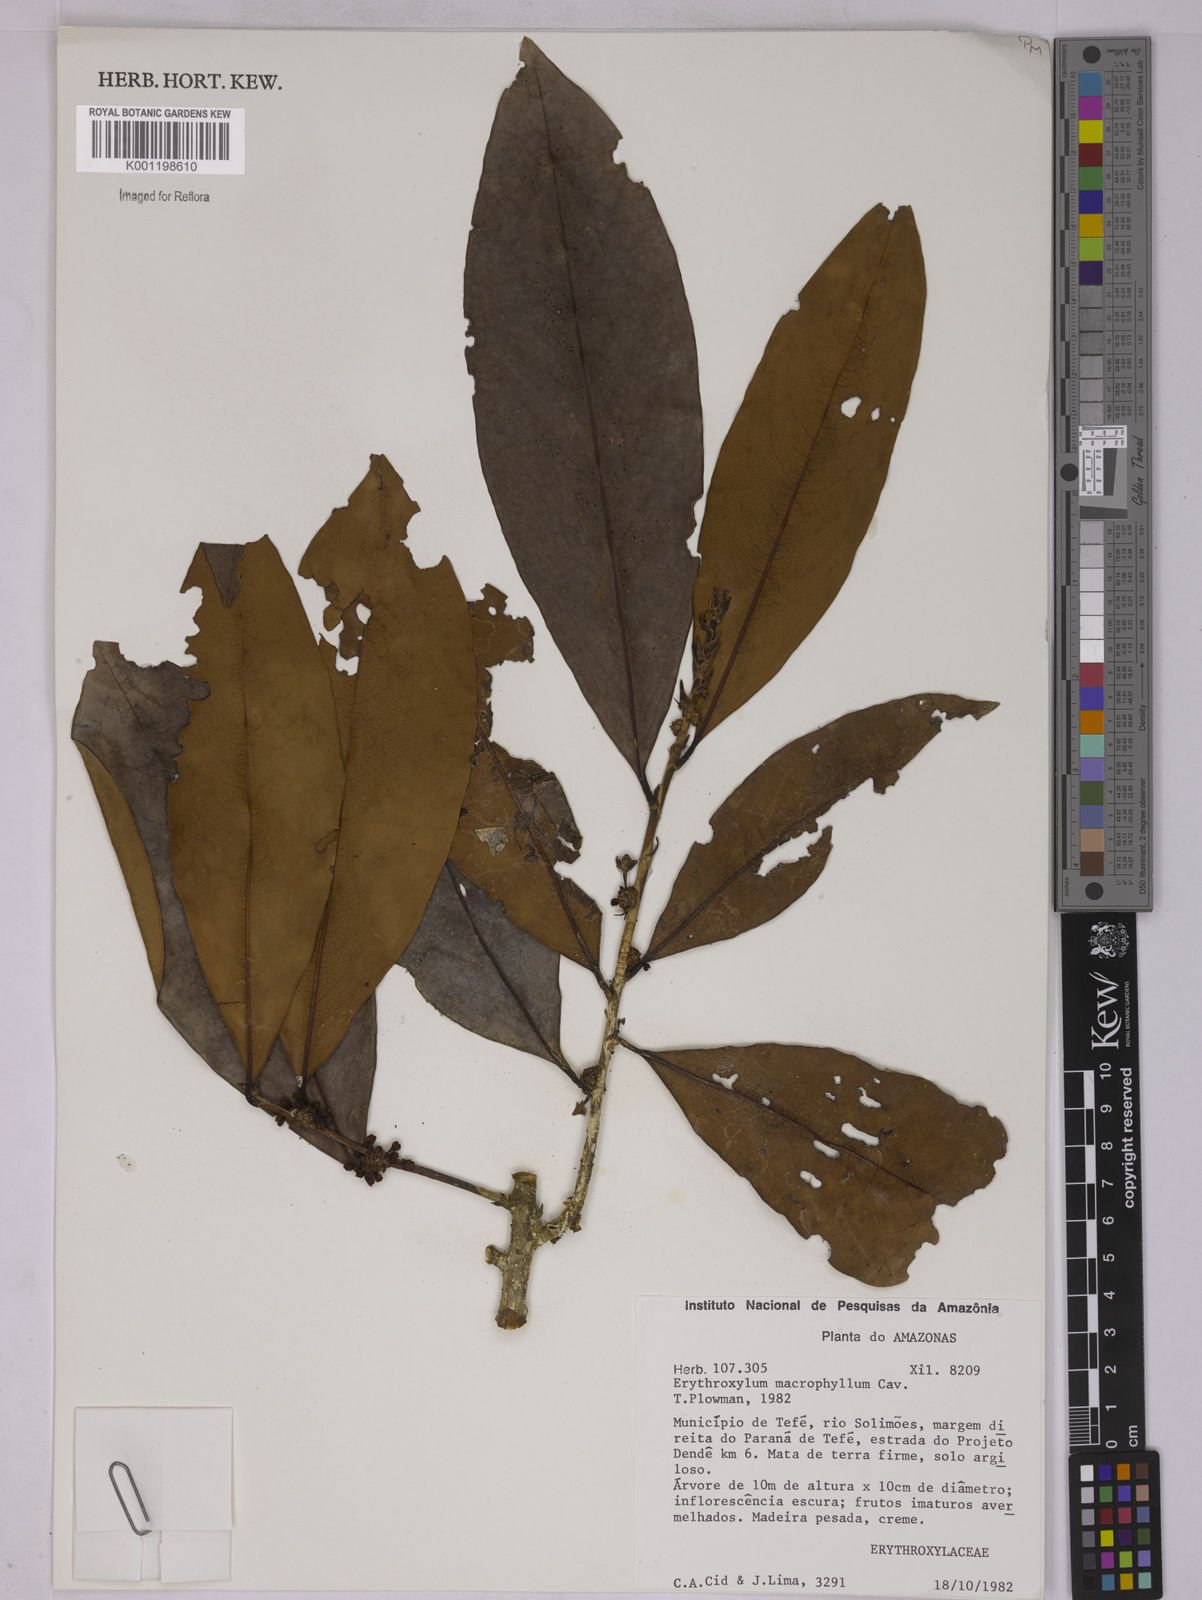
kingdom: Plantae
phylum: Tracheophyta
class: Magnoliopsida
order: Malpighiales
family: Erythroxylaceae
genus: Erythroxylum
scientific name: Erythroxylum macrophyllum
